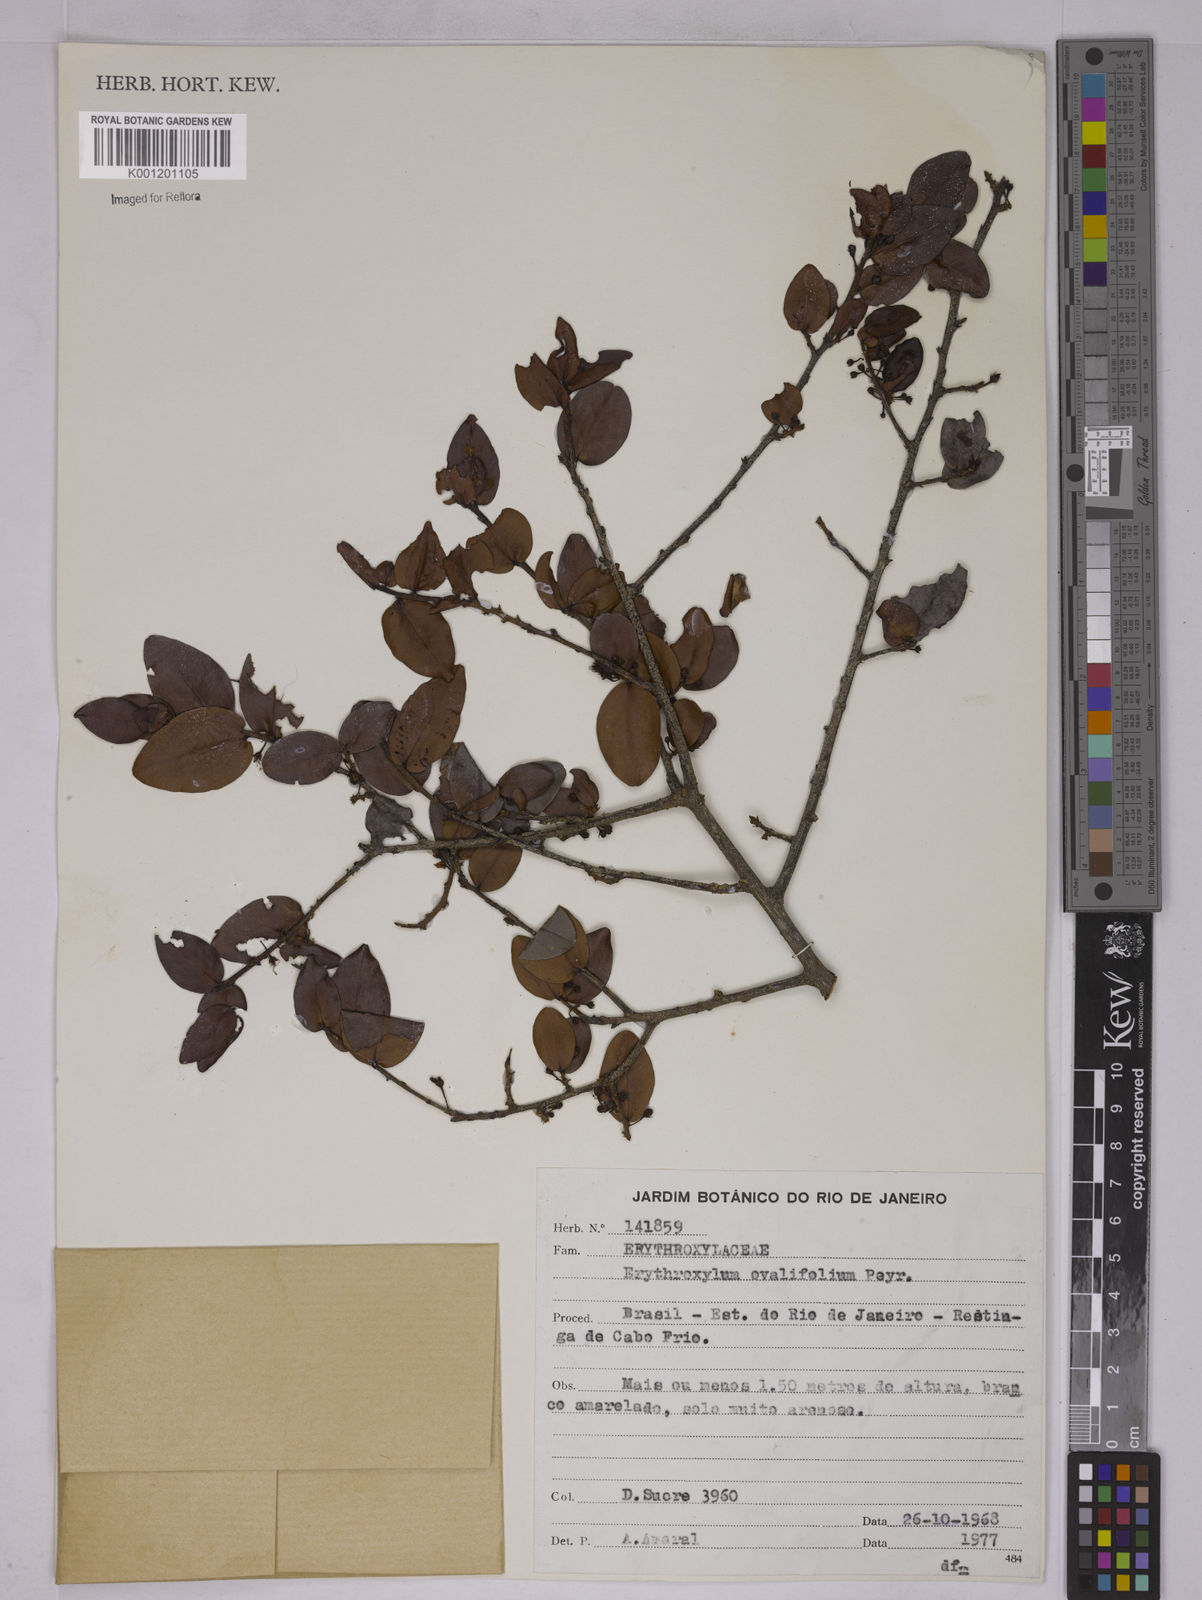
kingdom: Plantae
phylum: Tracheophyta
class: Magnoliopsida
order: Malpighiales
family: Erythroxylaceae
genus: Erythroxylum
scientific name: Erythroxylum ovalifolium
